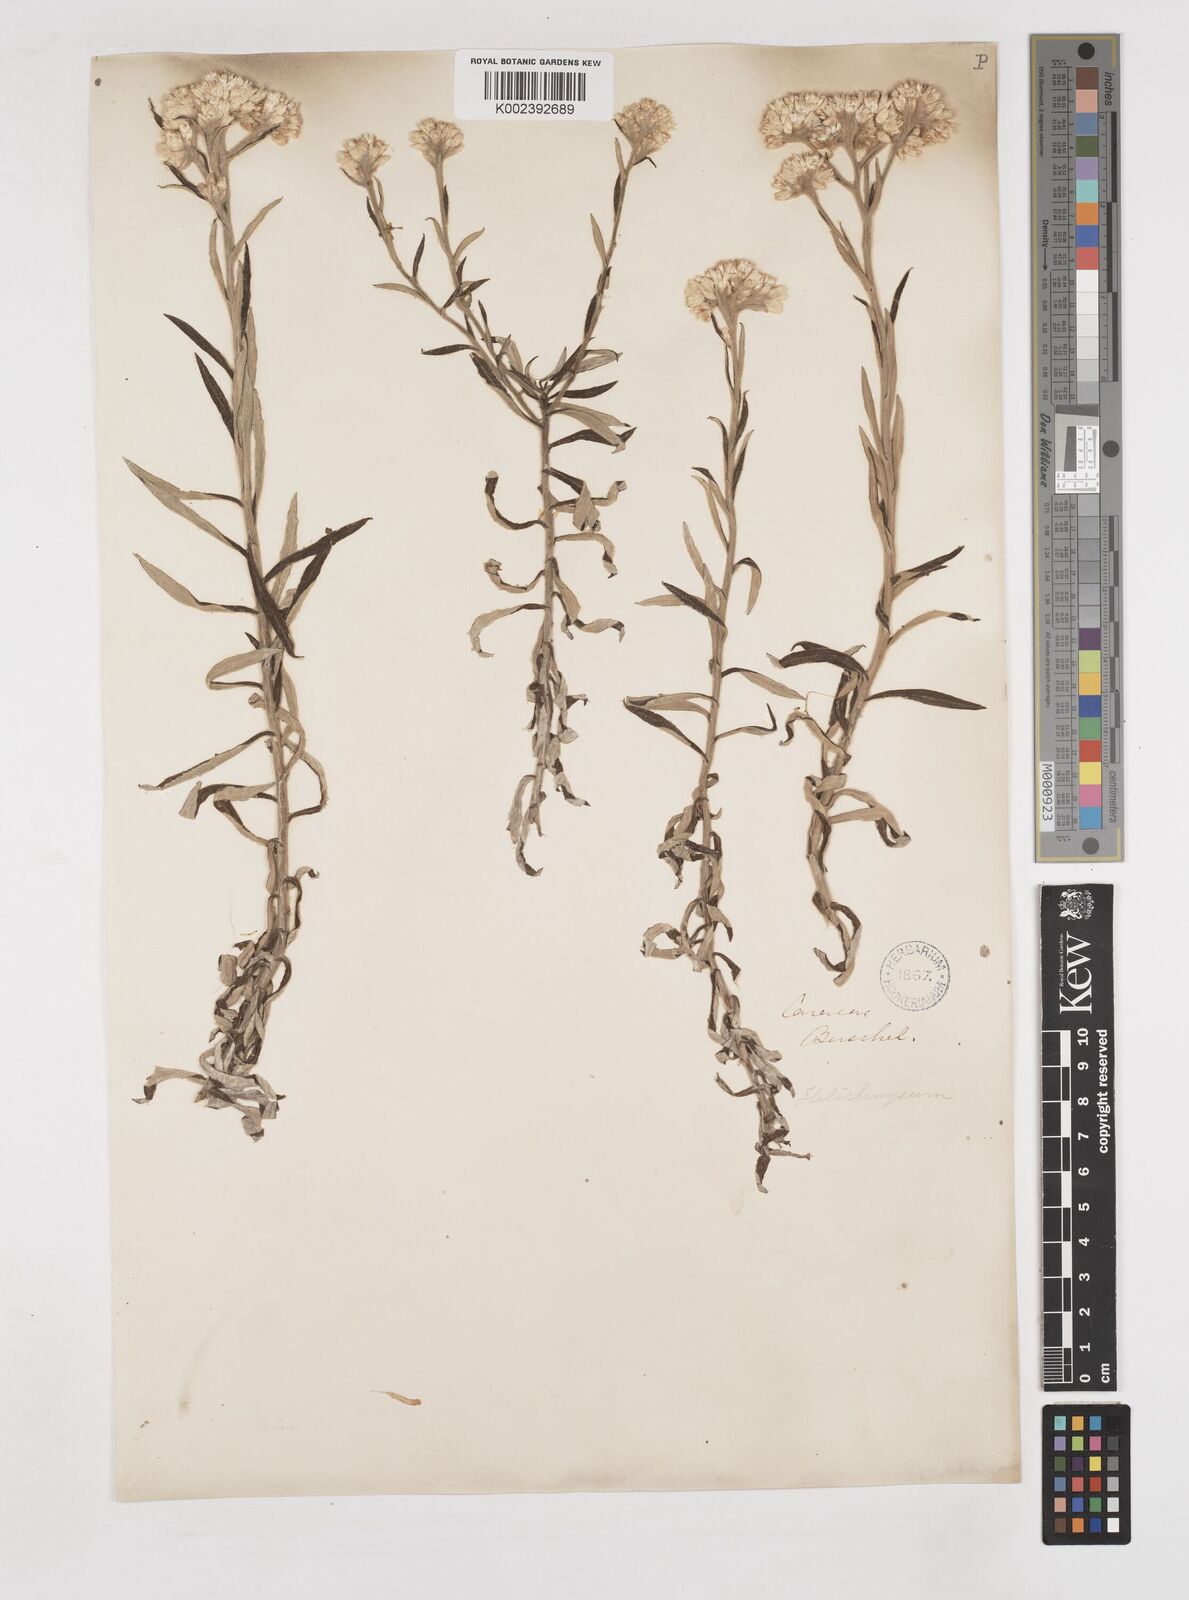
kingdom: Plantae
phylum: Tracheophyta
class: Magnoliopsida
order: Asterales
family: Asteraceae
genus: Gnaphalium
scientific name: Gnaphalium
